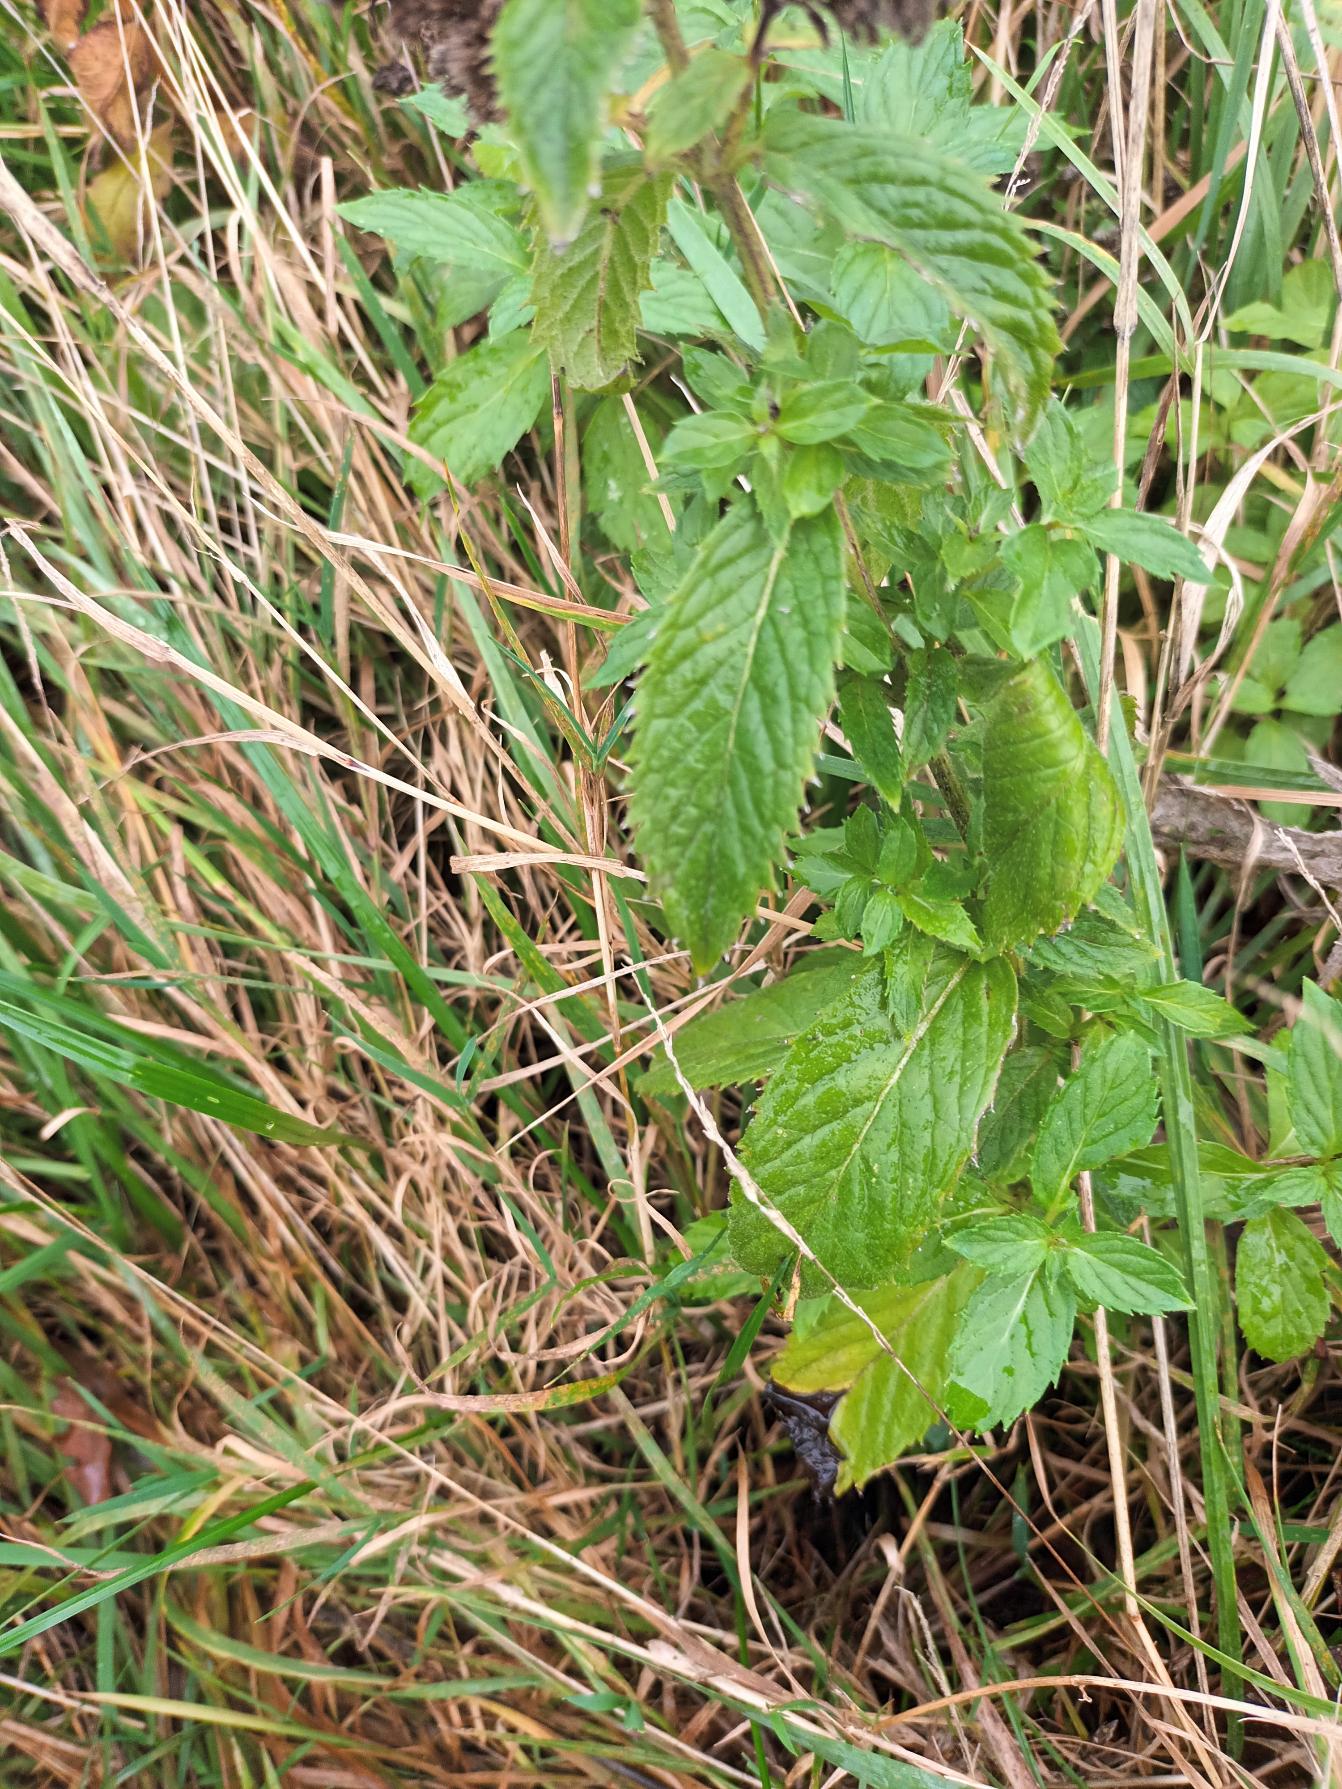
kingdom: Plantae
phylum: Tracheophyta
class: Magnoliopsida
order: Lamiales
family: Lamiaceae
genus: Mentha
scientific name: Mentha spicata
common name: Grøn mynte
